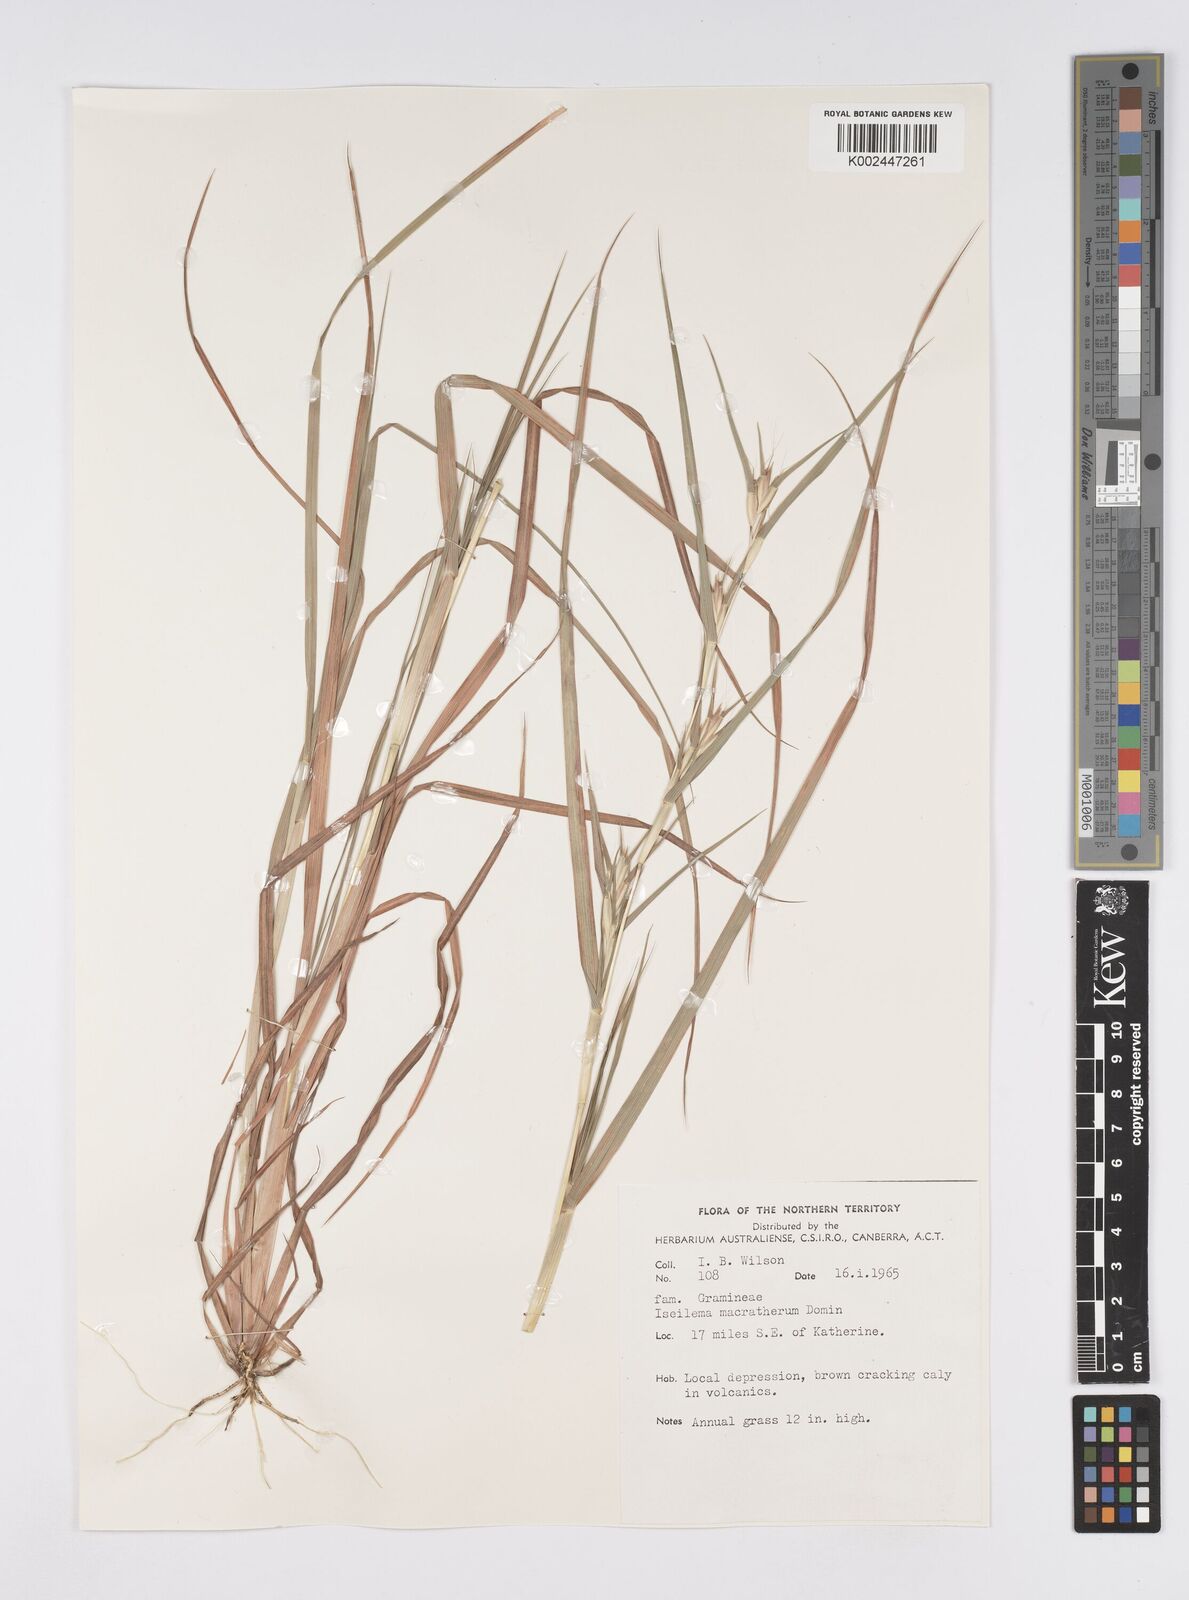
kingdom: Plantae
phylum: Tracheophyta
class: Liliopsida
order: Poales
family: Poaceae
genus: Iseilema
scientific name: Iseilema macratherum
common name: Bull flinders grass
